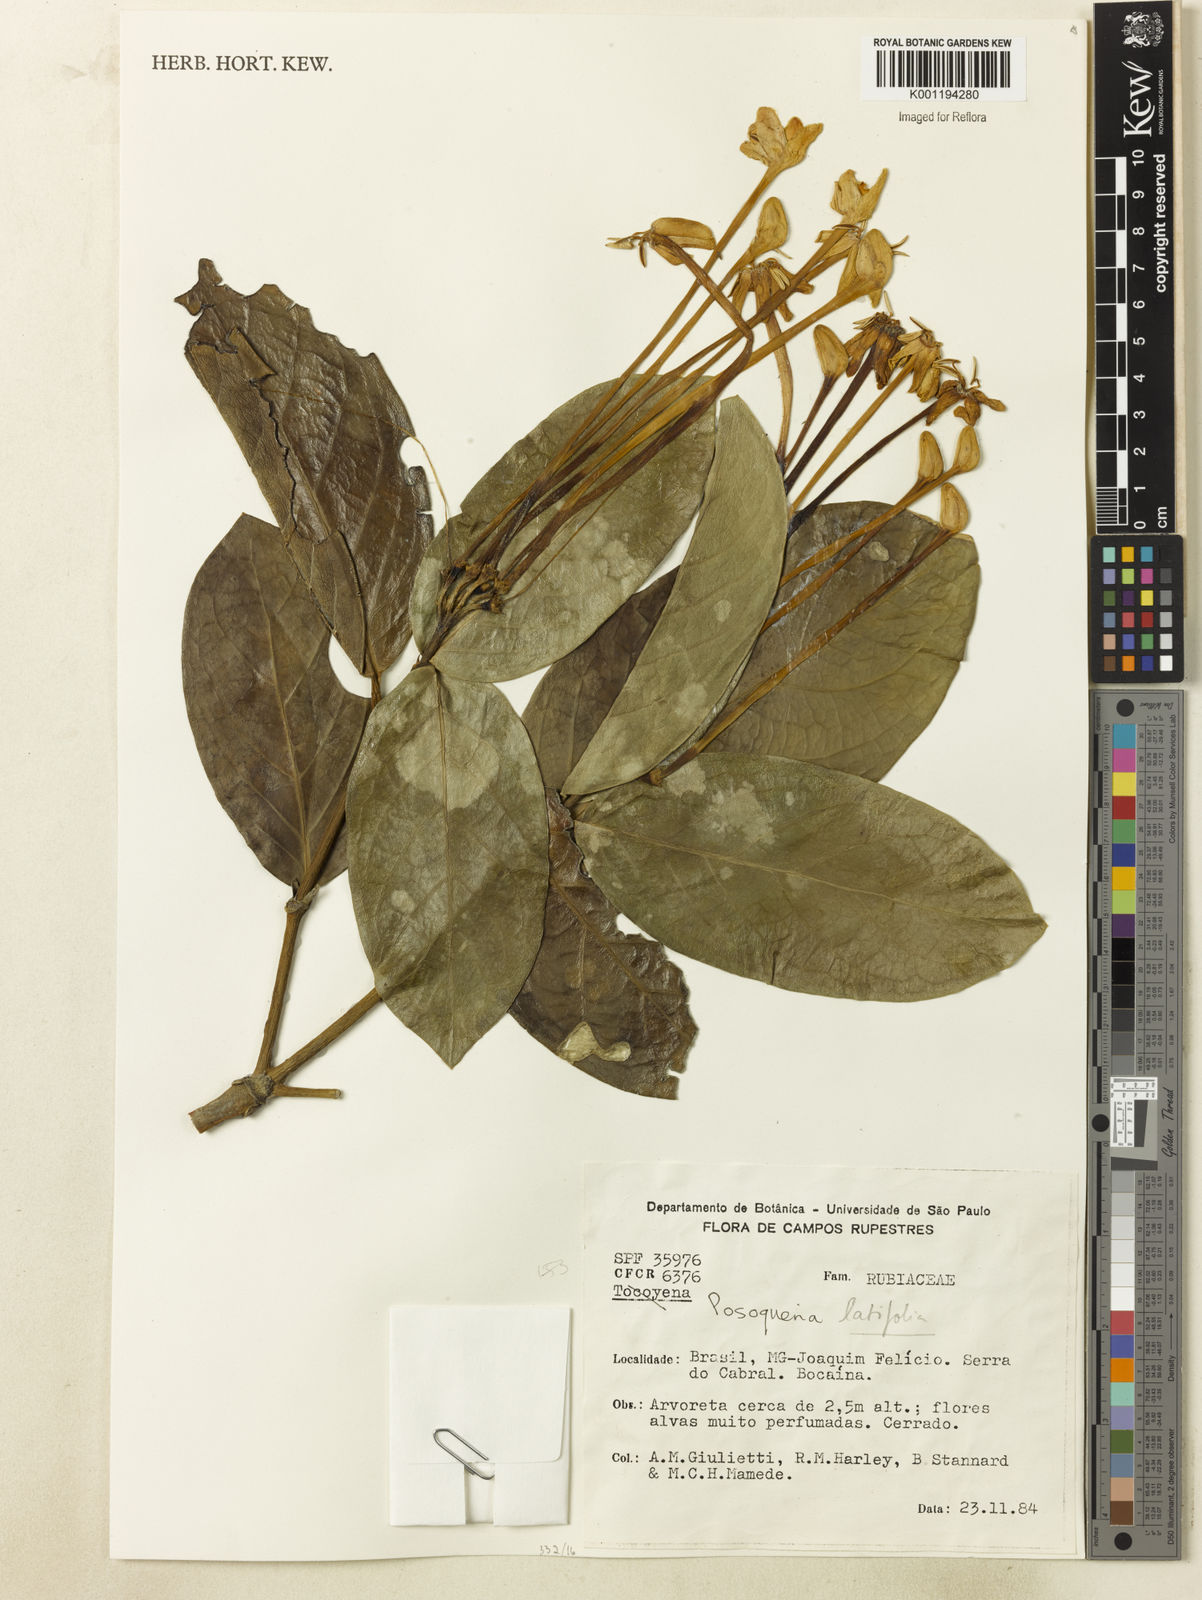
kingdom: Plantae
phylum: Tracheophyta
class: Magnoliopsida
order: Gentianales
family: Rubiaceae
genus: Posoqueria
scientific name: Posoqueria latifolia
